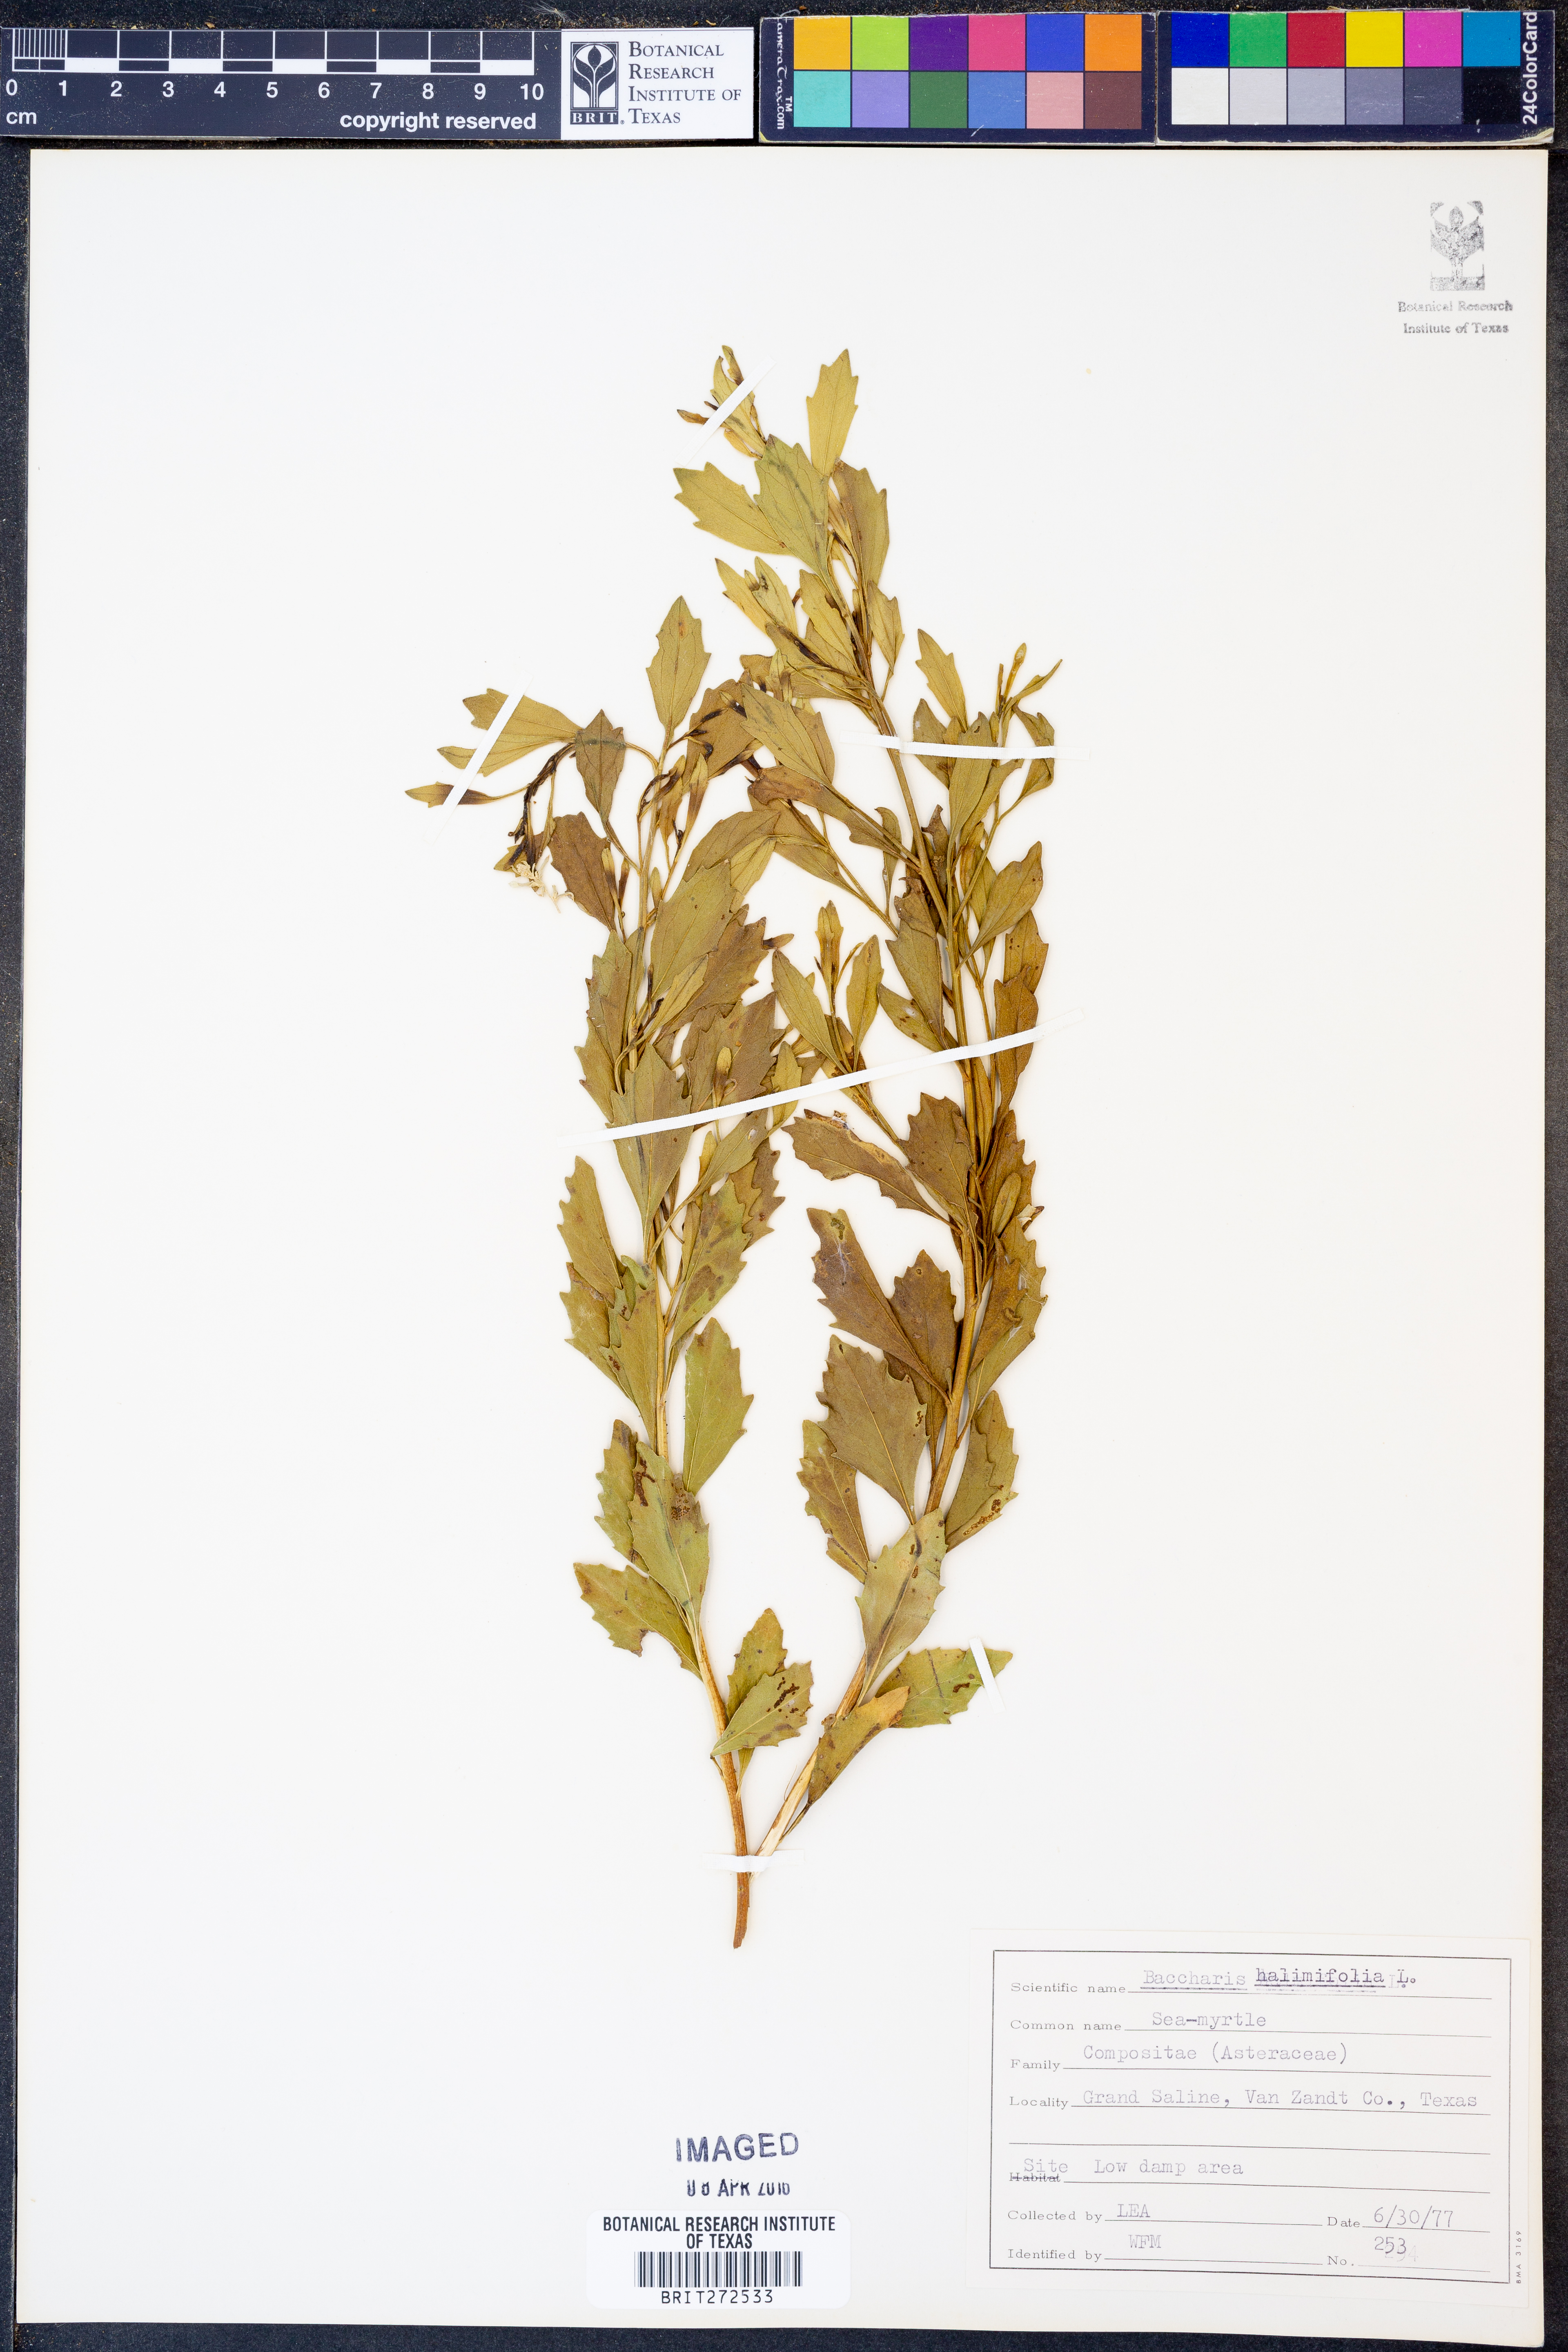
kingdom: Plantae
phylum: Tracheophyta
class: Magnoliopsida
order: Asterales
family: Asteraceae
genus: Nidorella
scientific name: Nidorella ivifolia
